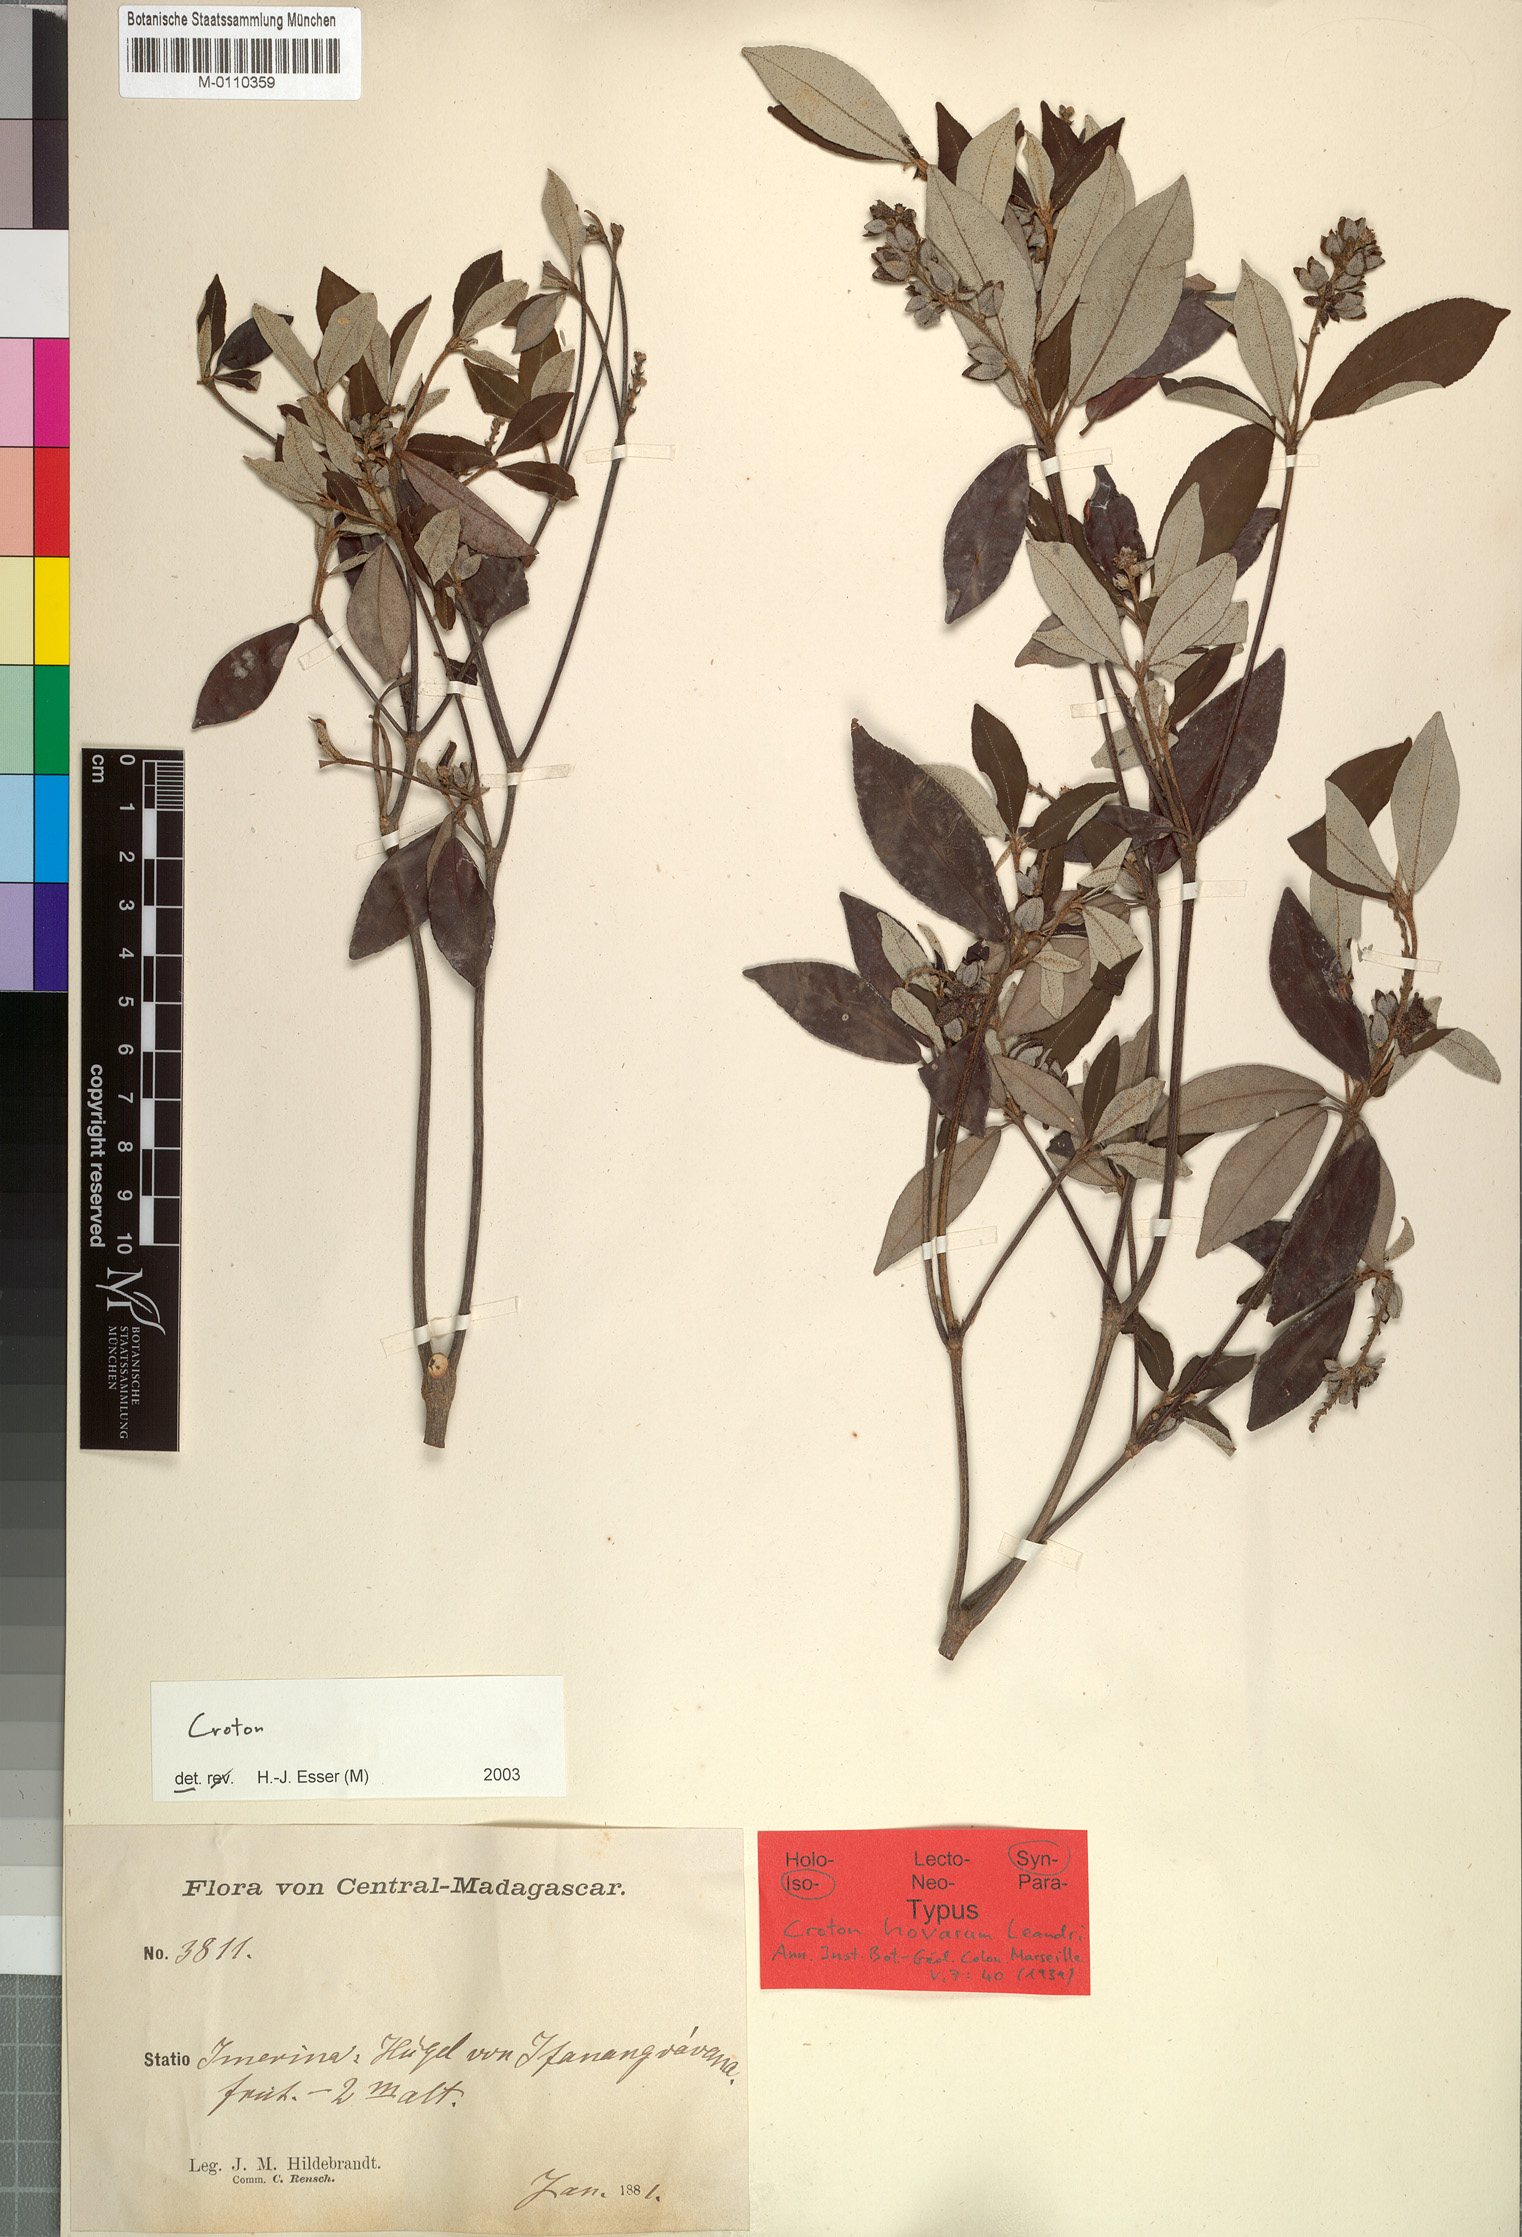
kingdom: Plantae
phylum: Tracheophyta
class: Magnoliopsida
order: Malpighiales
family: Euphorbiaceae
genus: Croton
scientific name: Croton hovarum
